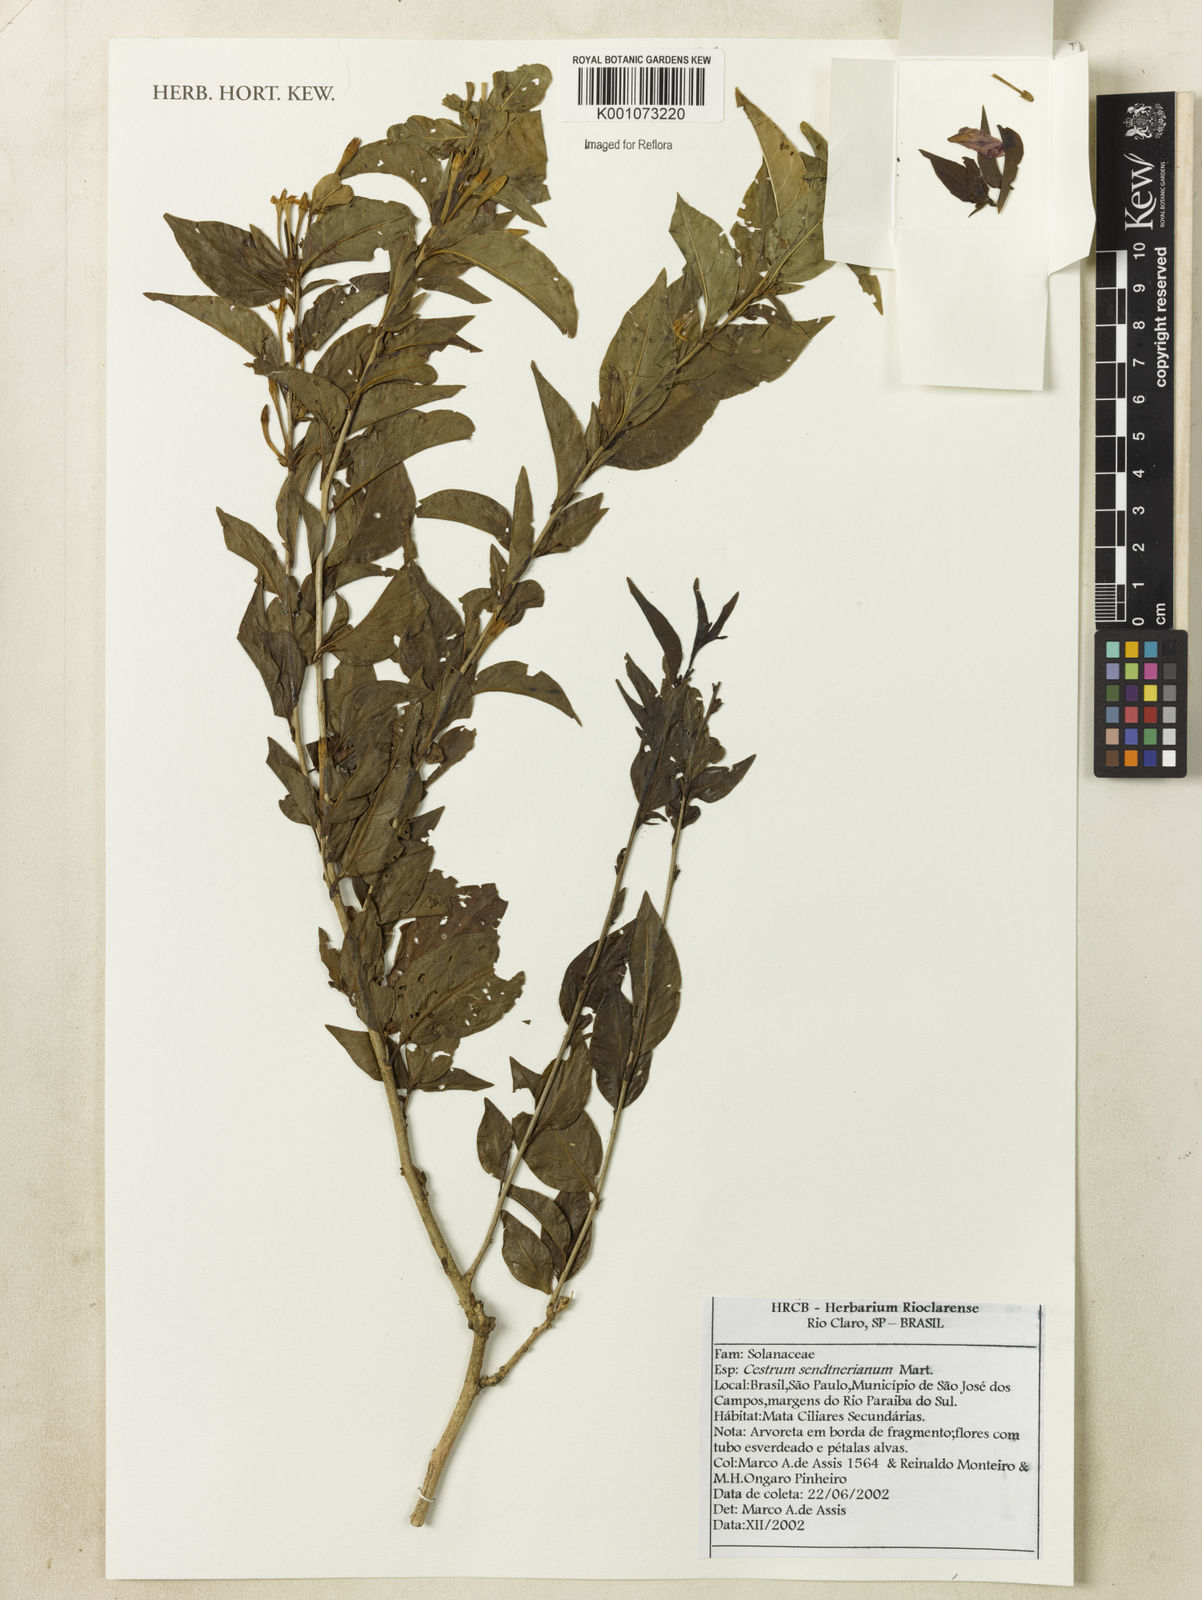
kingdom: Plantae
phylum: Tracheophyta
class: Magnoliopsida
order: Solanales
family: Solanaceae
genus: Cestrum
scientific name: Cestrum mariquitense
